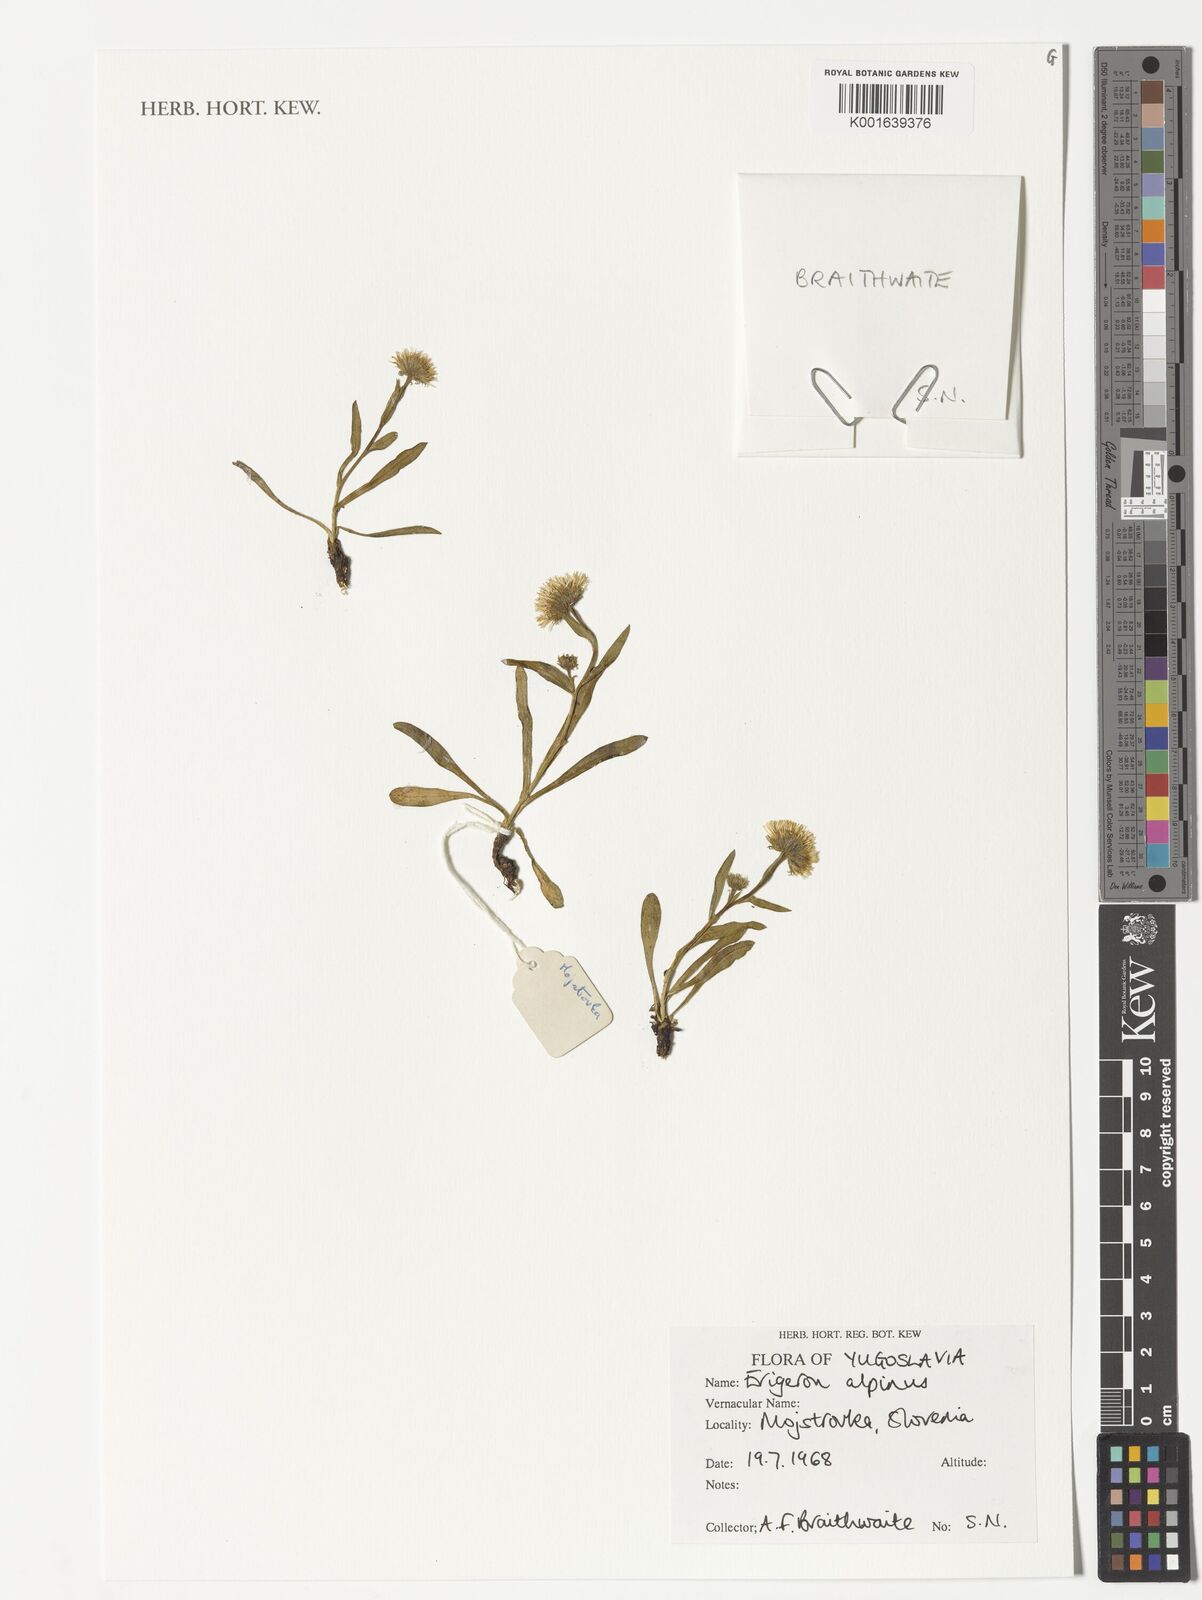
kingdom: Plantae
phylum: Tracheophyta
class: Magnoliopsida
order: Asterales
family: Asteraceae
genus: Erigeron
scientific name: Erigeron alpinus
